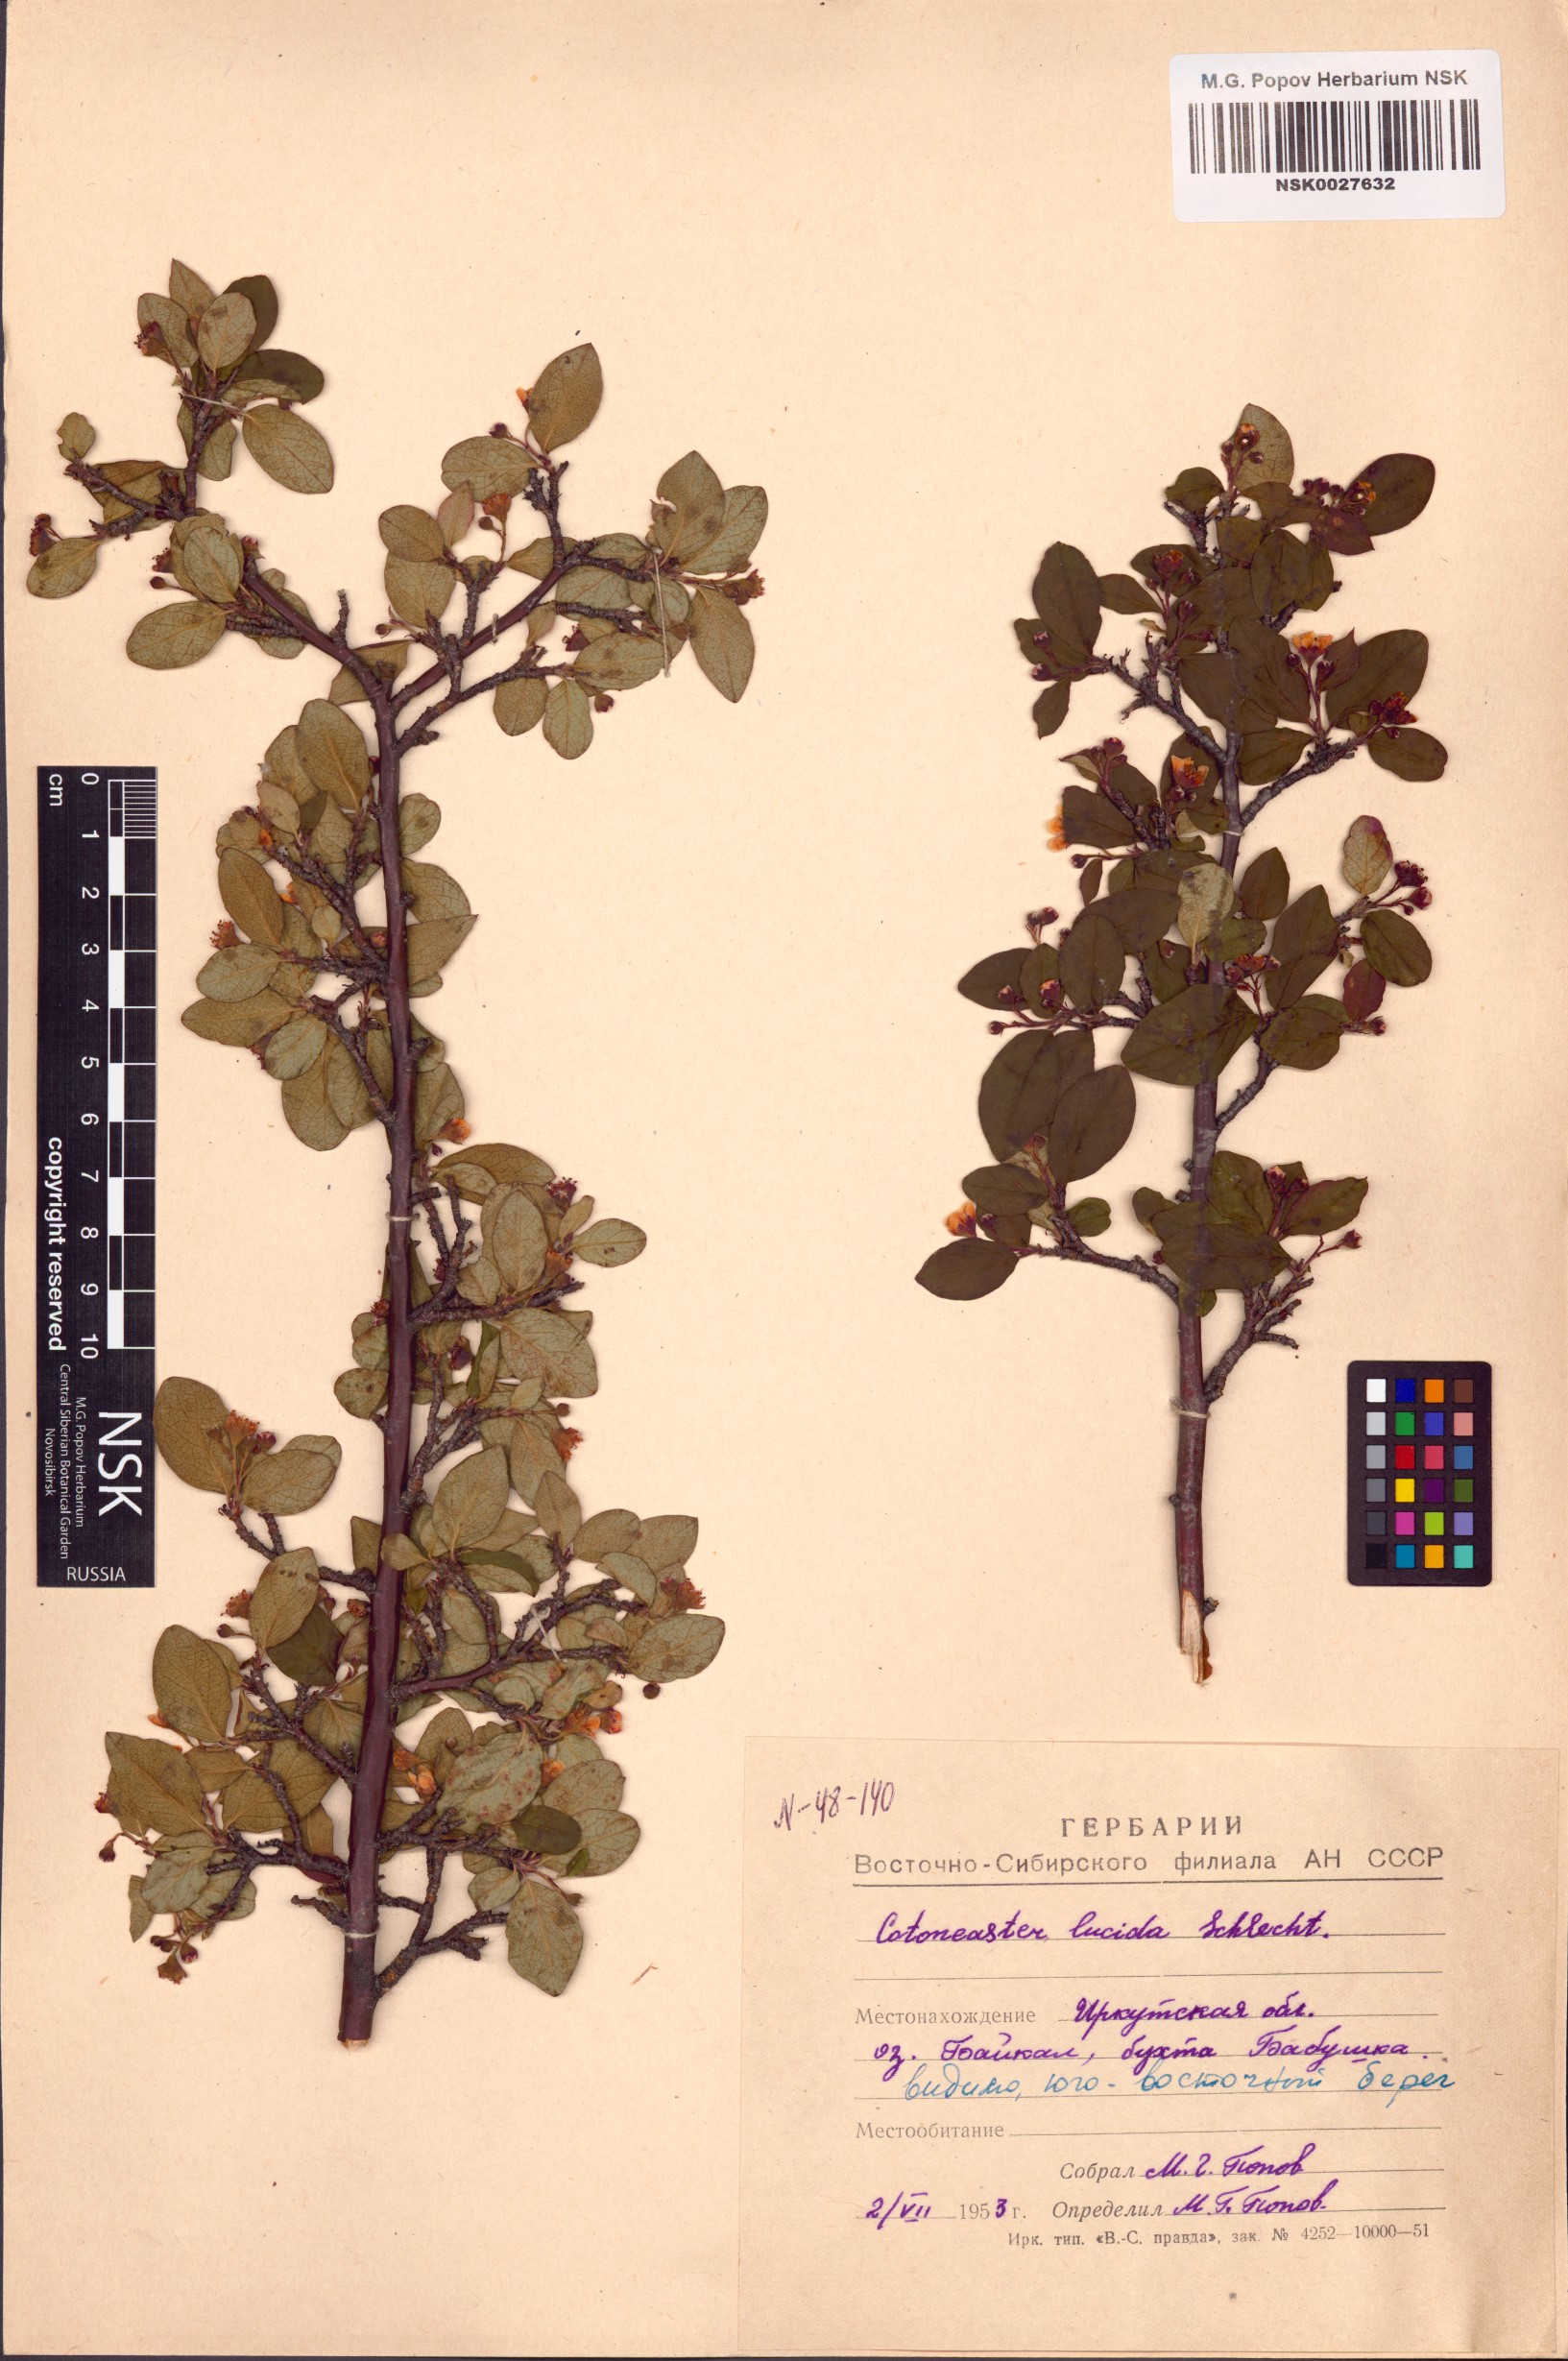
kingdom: Plantae
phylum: Tracheophyta
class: Magnoliopsida
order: Rosales
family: Rosaceae
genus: Cotoneaster
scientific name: Cotoneaster acutifolius
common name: Peking cotoneaster
